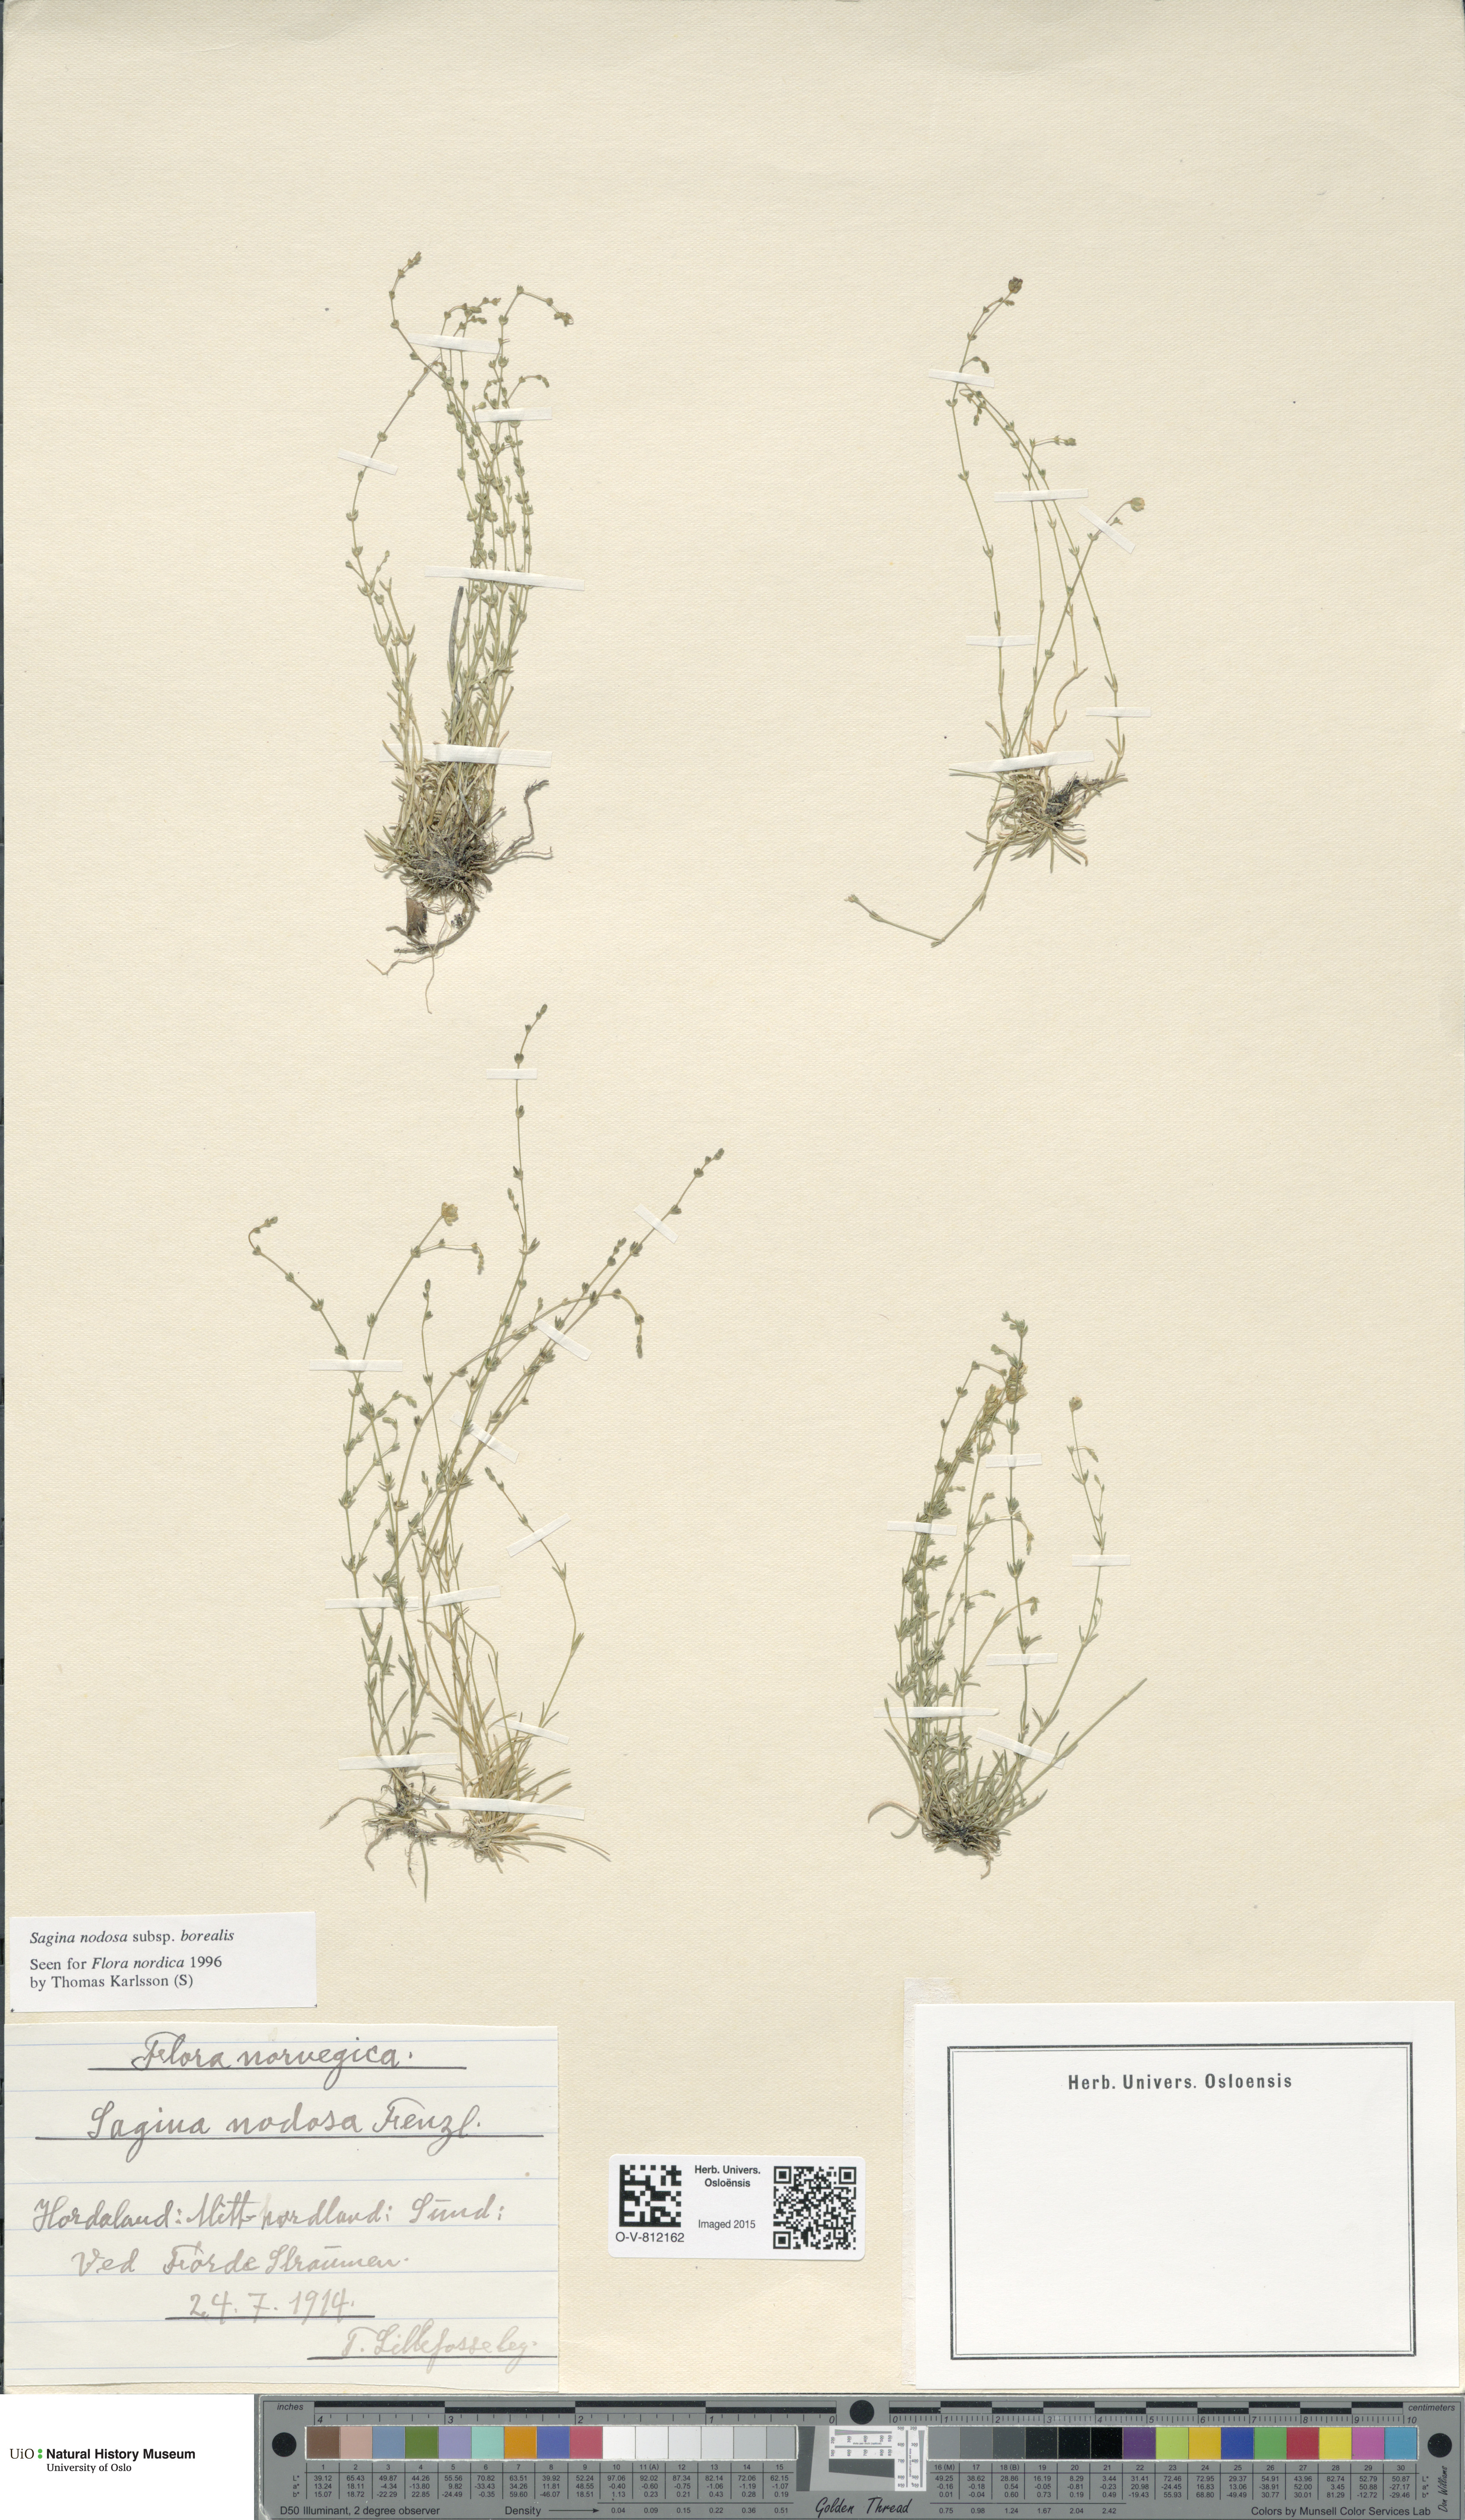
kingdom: Plantae
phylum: Tracheophyta
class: Magnoliopsida
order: Caryophyllales
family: Caryophyllaceae
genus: Sagina
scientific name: Sagina nodosa
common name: Knotted pearlwort
